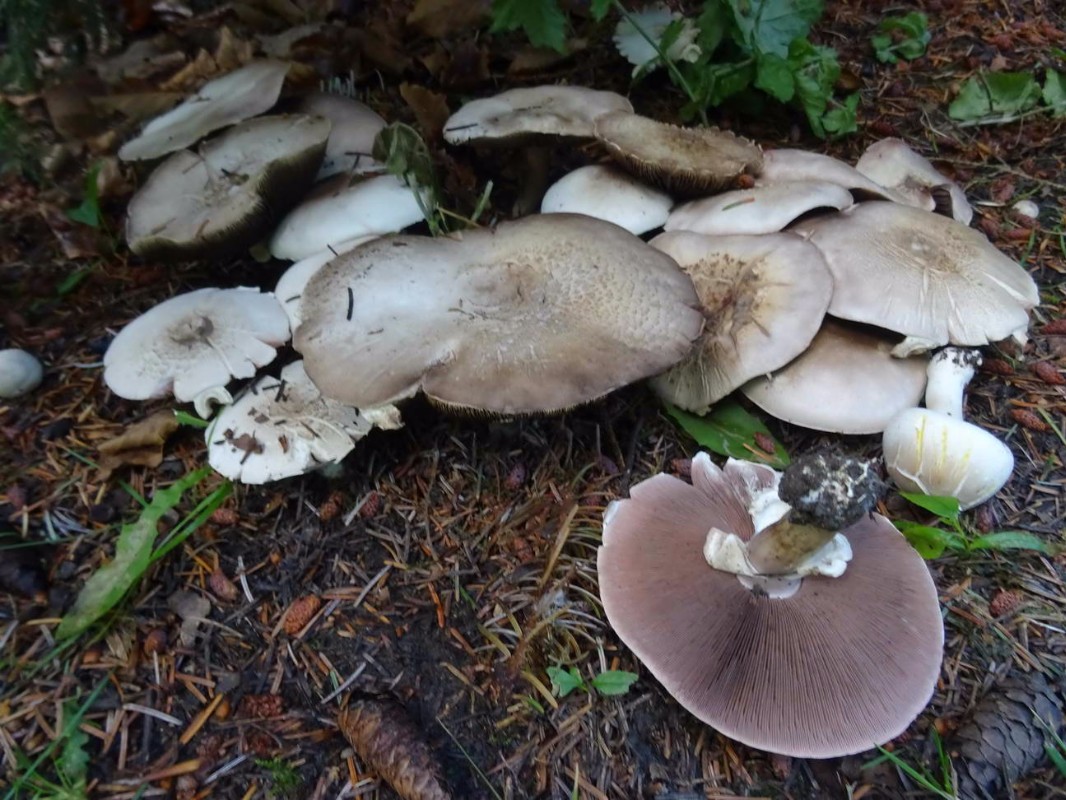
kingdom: Fungi
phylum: Basidiomycota
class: Agaricomycetes
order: Agaricales
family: Agaricaceae
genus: Agaricus
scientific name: Agaricus xanthodermus
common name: karbol-champignon
